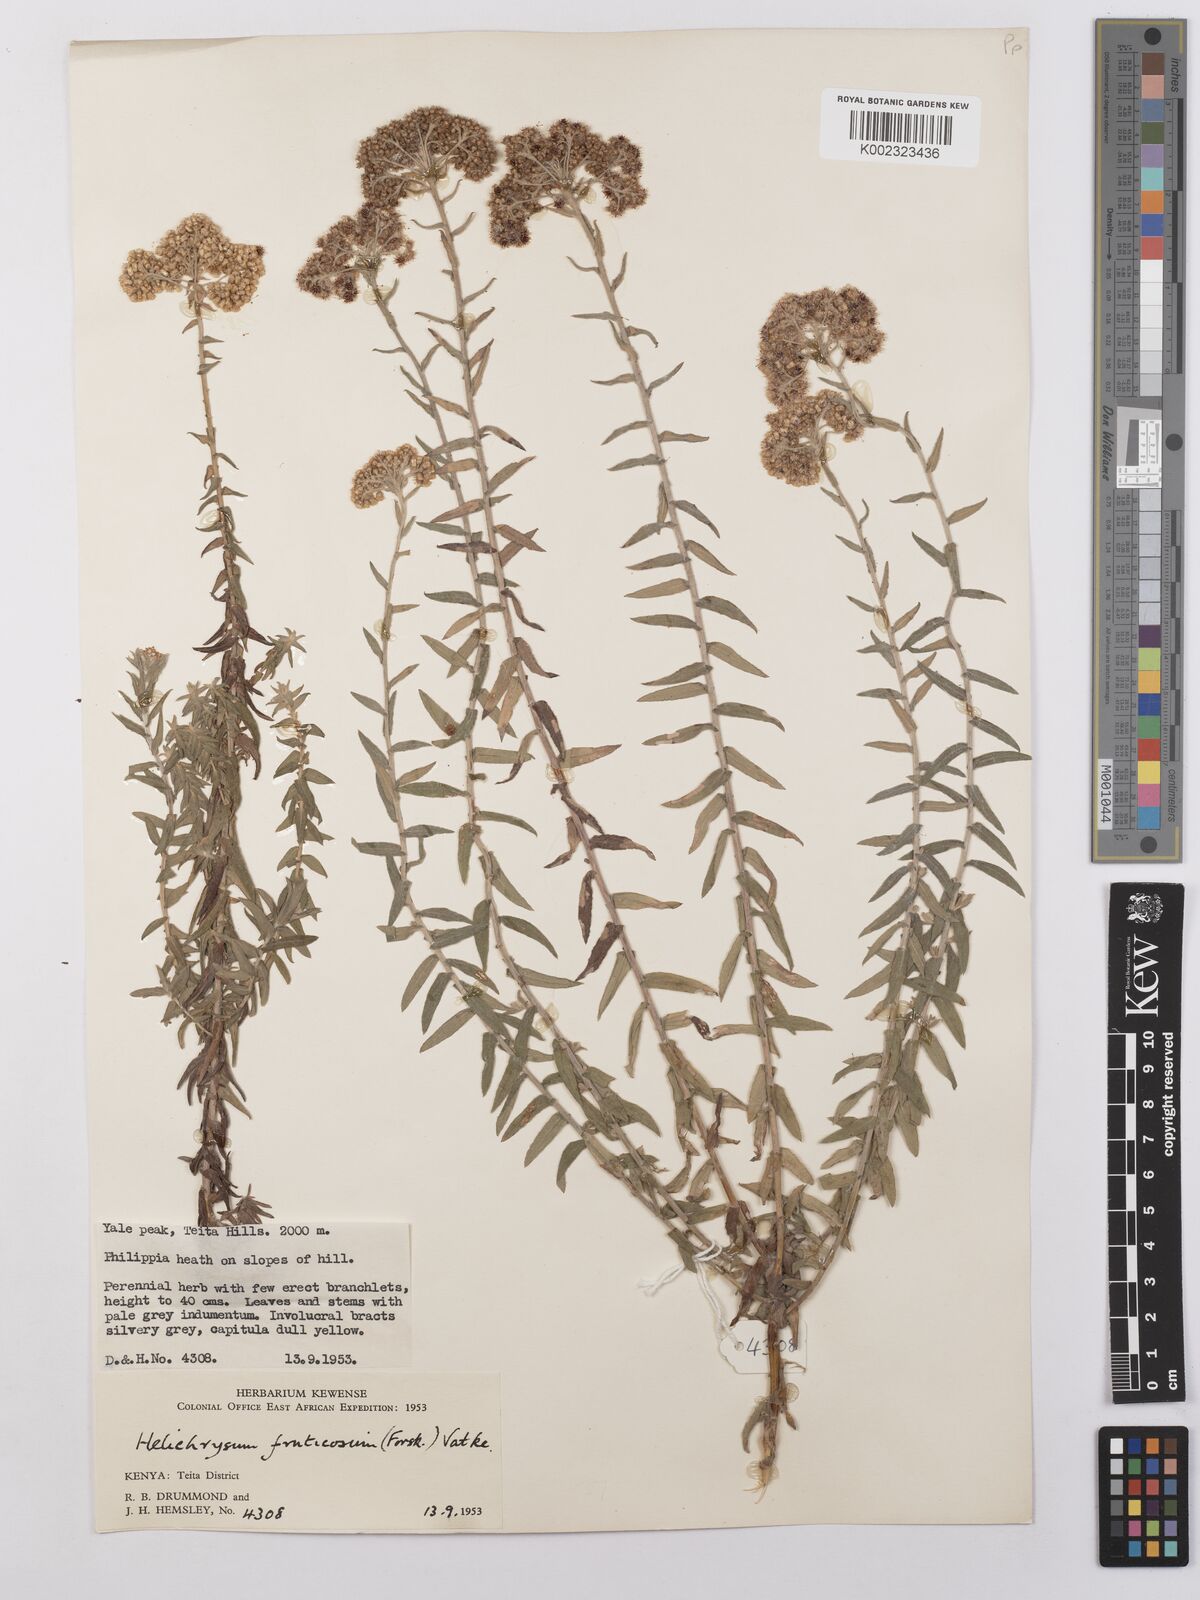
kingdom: Plantae
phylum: Tracheophyta
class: Magnoliopsida
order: Asterales
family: Asteraceae
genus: Helichrysum
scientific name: Helichrysum forskahlii
